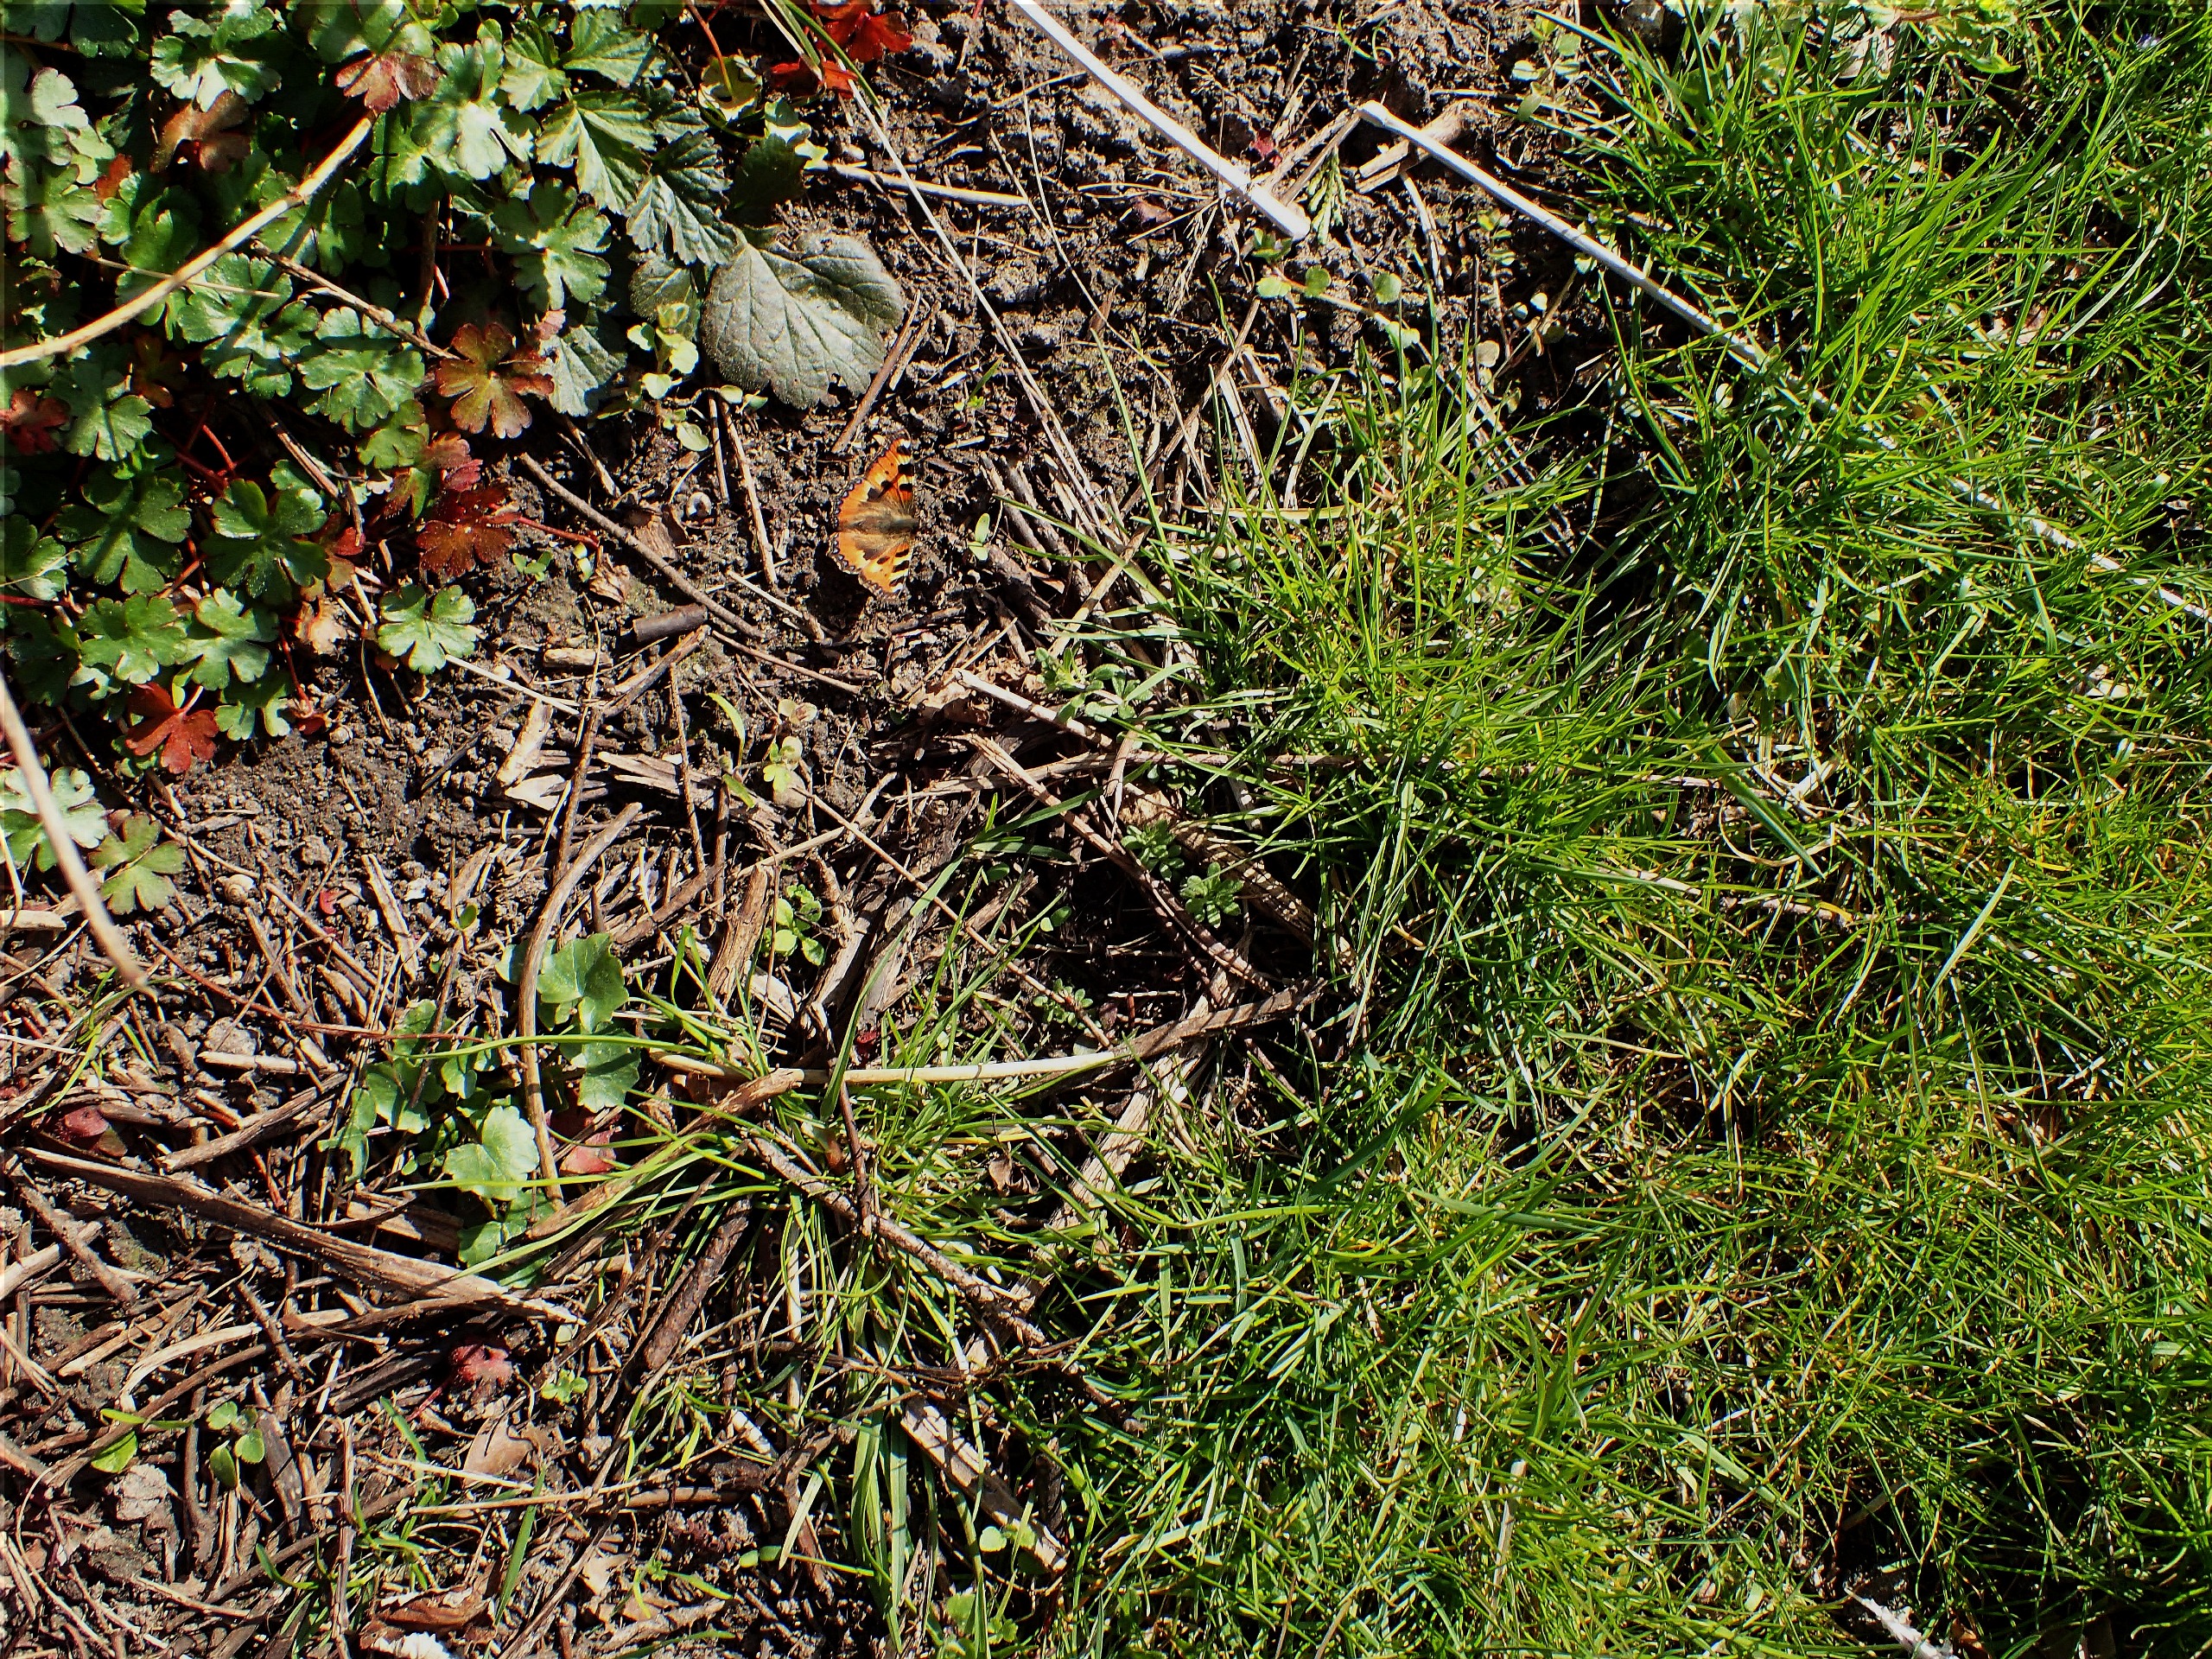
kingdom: Animalia
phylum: Arthropoda
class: Insecta
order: Lepidoptera
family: Nymphalidae
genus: Aglais
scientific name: Aglais urticae
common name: Nældens takvinge
